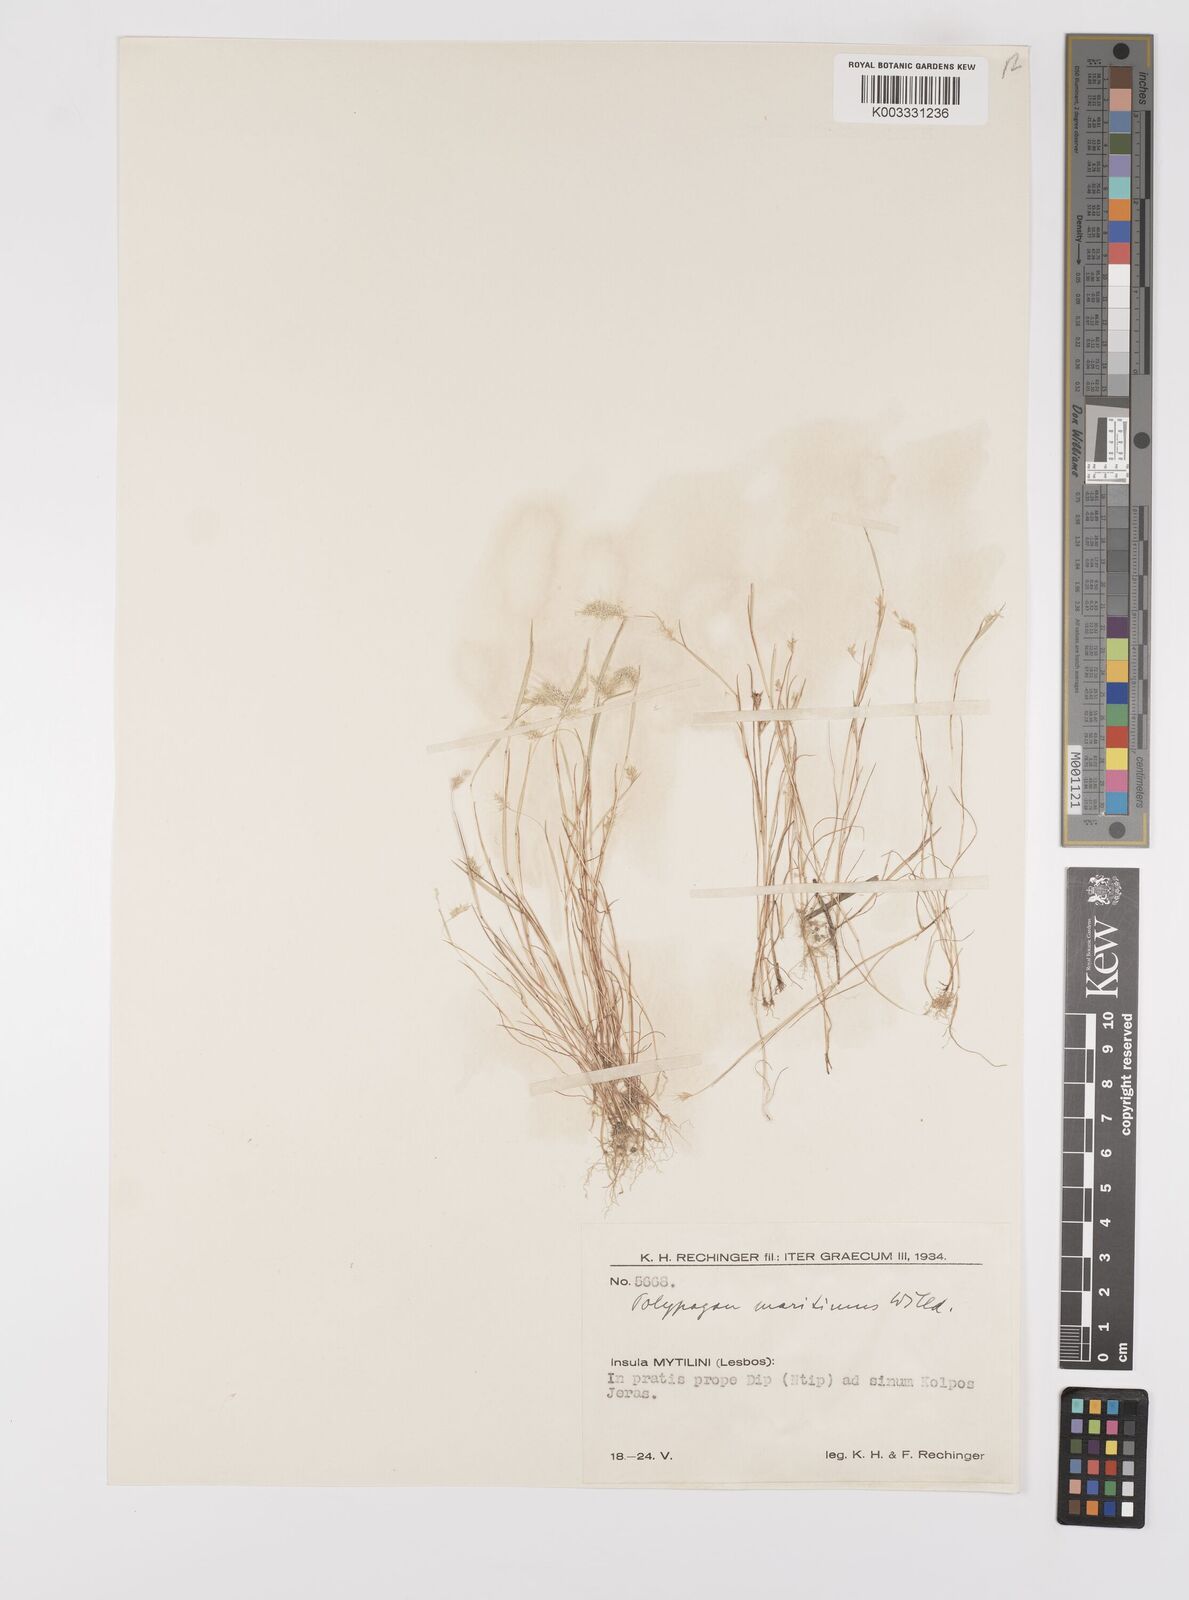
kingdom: Plantae
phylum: Tracheophyta
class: Liliopsida
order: Poales
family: Poaceae
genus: Polypogon
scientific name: Polypogon maritimus
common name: Mediterranean rabbitsfoot grass
